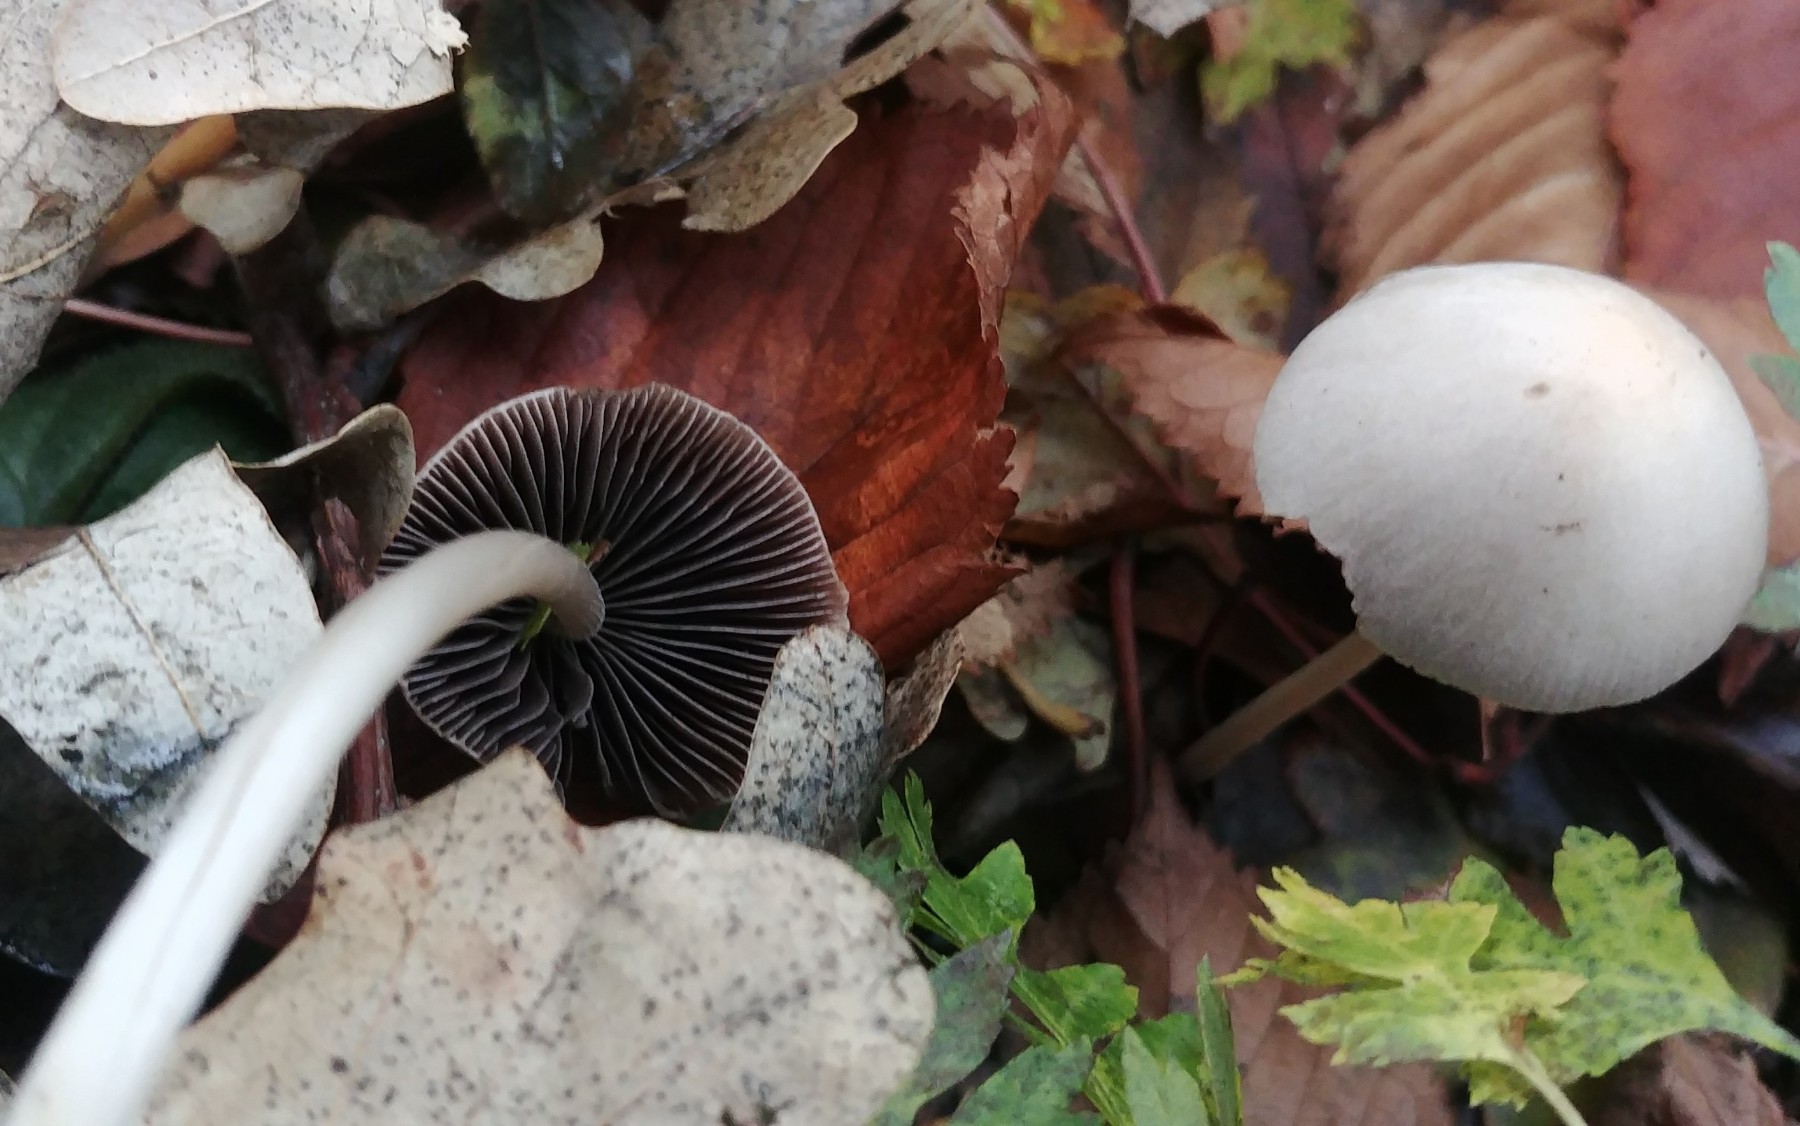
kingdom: Fungi
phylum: Basidiomycota
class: Agaricomycetes
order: Agaricales
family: Psathyrellaceae
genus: Psathyrella
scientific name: Psathyrella
